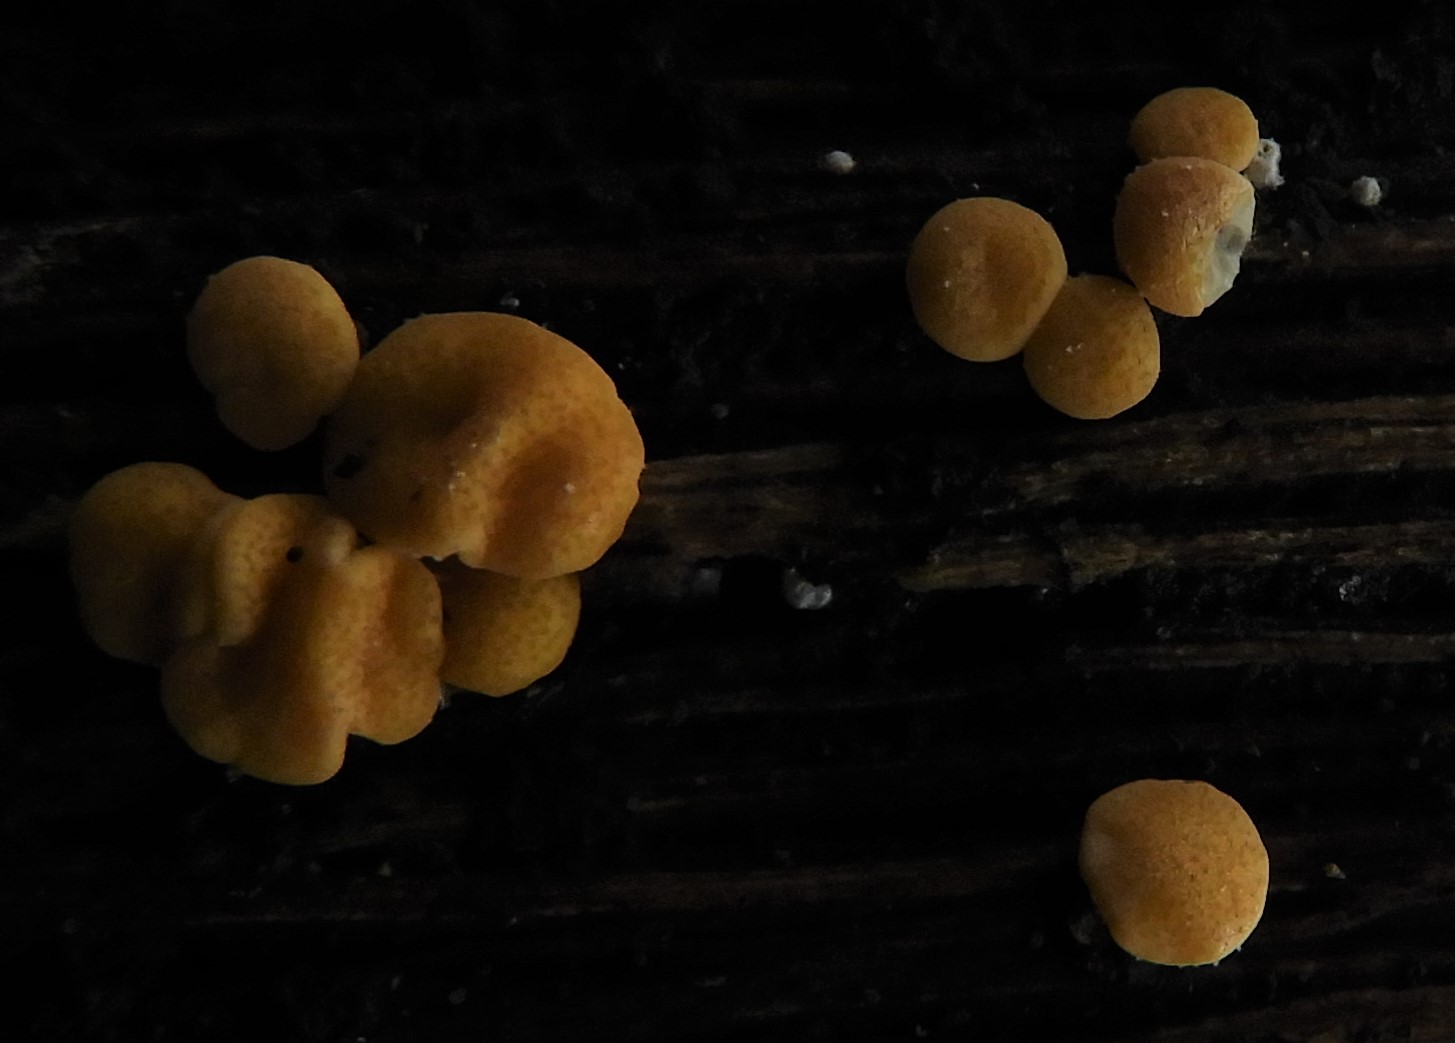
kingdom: Fungi
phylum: Ascomycota
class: Sordariomycetes
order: Hypocreales
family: Hypocreaceae
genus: Trichoderma
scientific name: Trichoderma
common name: kødkerne
